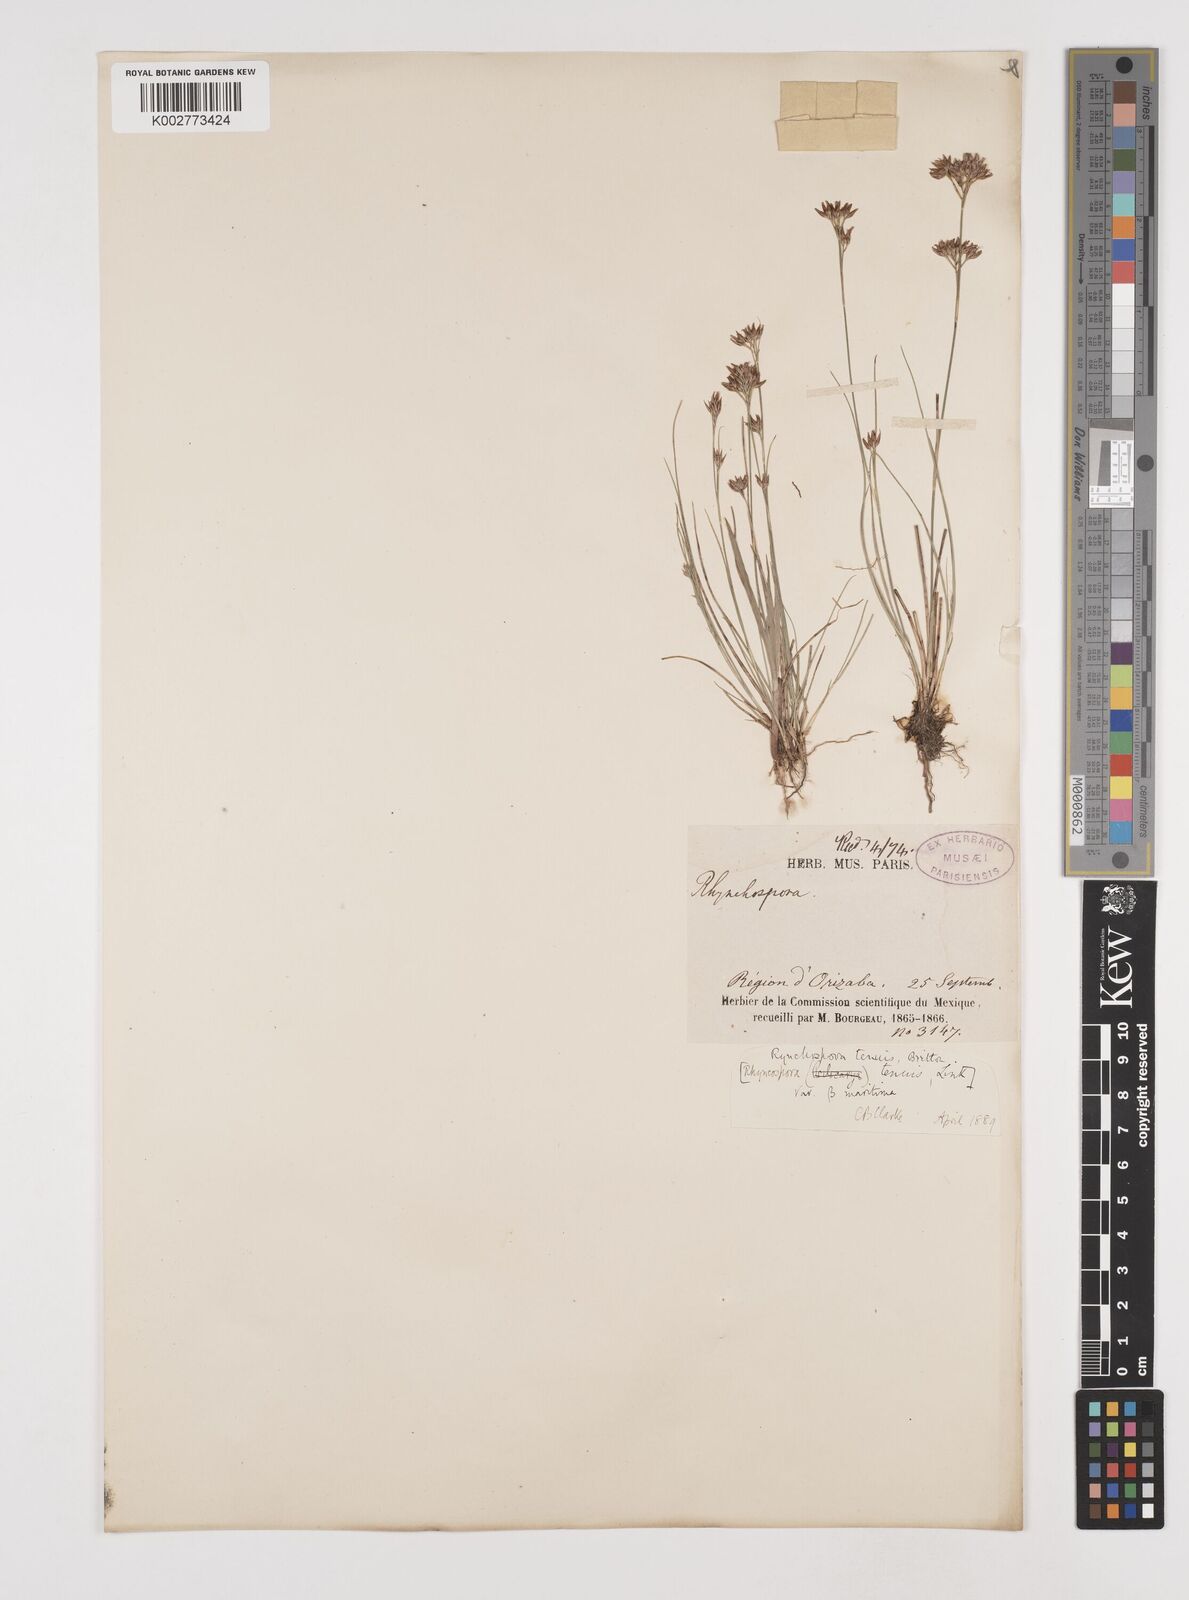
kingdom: Plantae
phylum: Tracheophyta
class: Liliopsida
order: Poales
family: Cyperaceae
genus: Rhynchospora
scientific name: Rhynchospora tenuis
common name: Quill beaksedge
